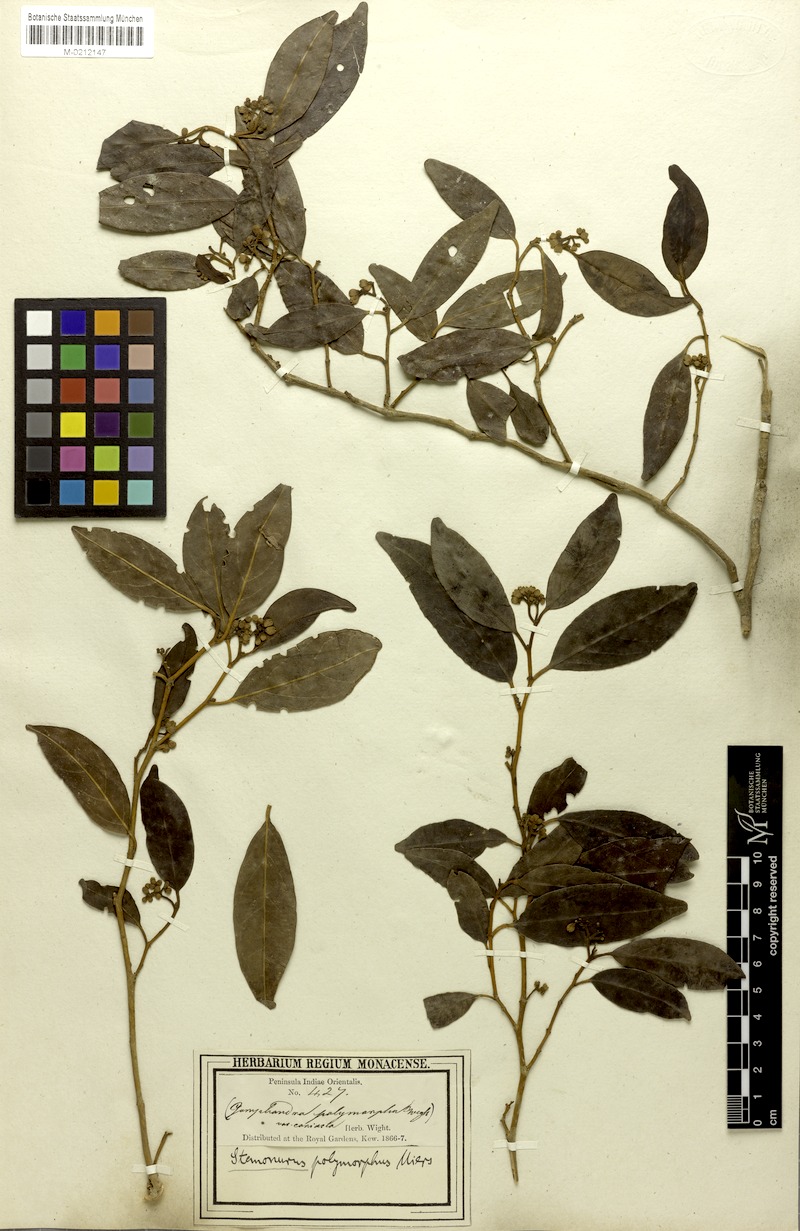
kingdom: Plantae
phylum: Tracheophyta
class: Magnoliopsida
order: Cardiopteridales
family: Stemonuraceae
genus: Gomphandra
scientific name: Gomphandra tetrandra
